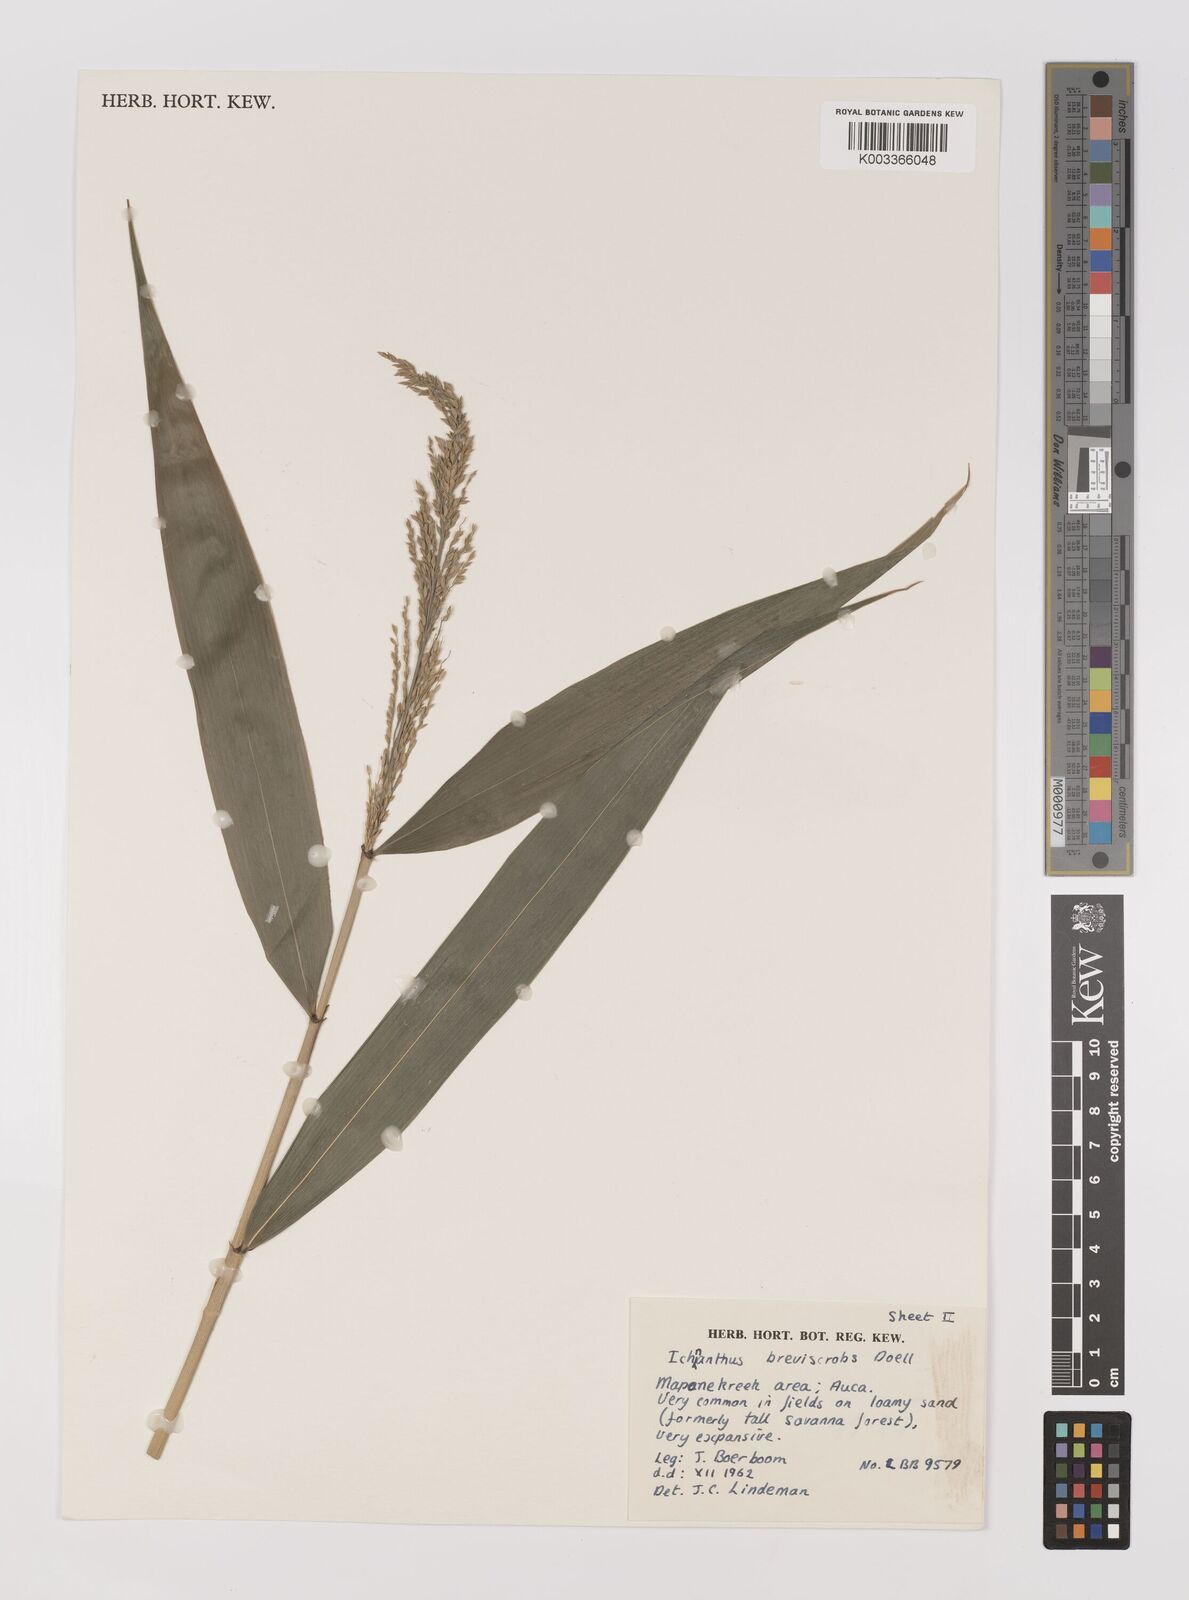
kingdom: Plantae
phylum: Tracheophyta
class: Liliopsida
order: Poales
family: Poaceae
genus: Ichnanthus
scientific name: Ichnanthus breviscrobs
